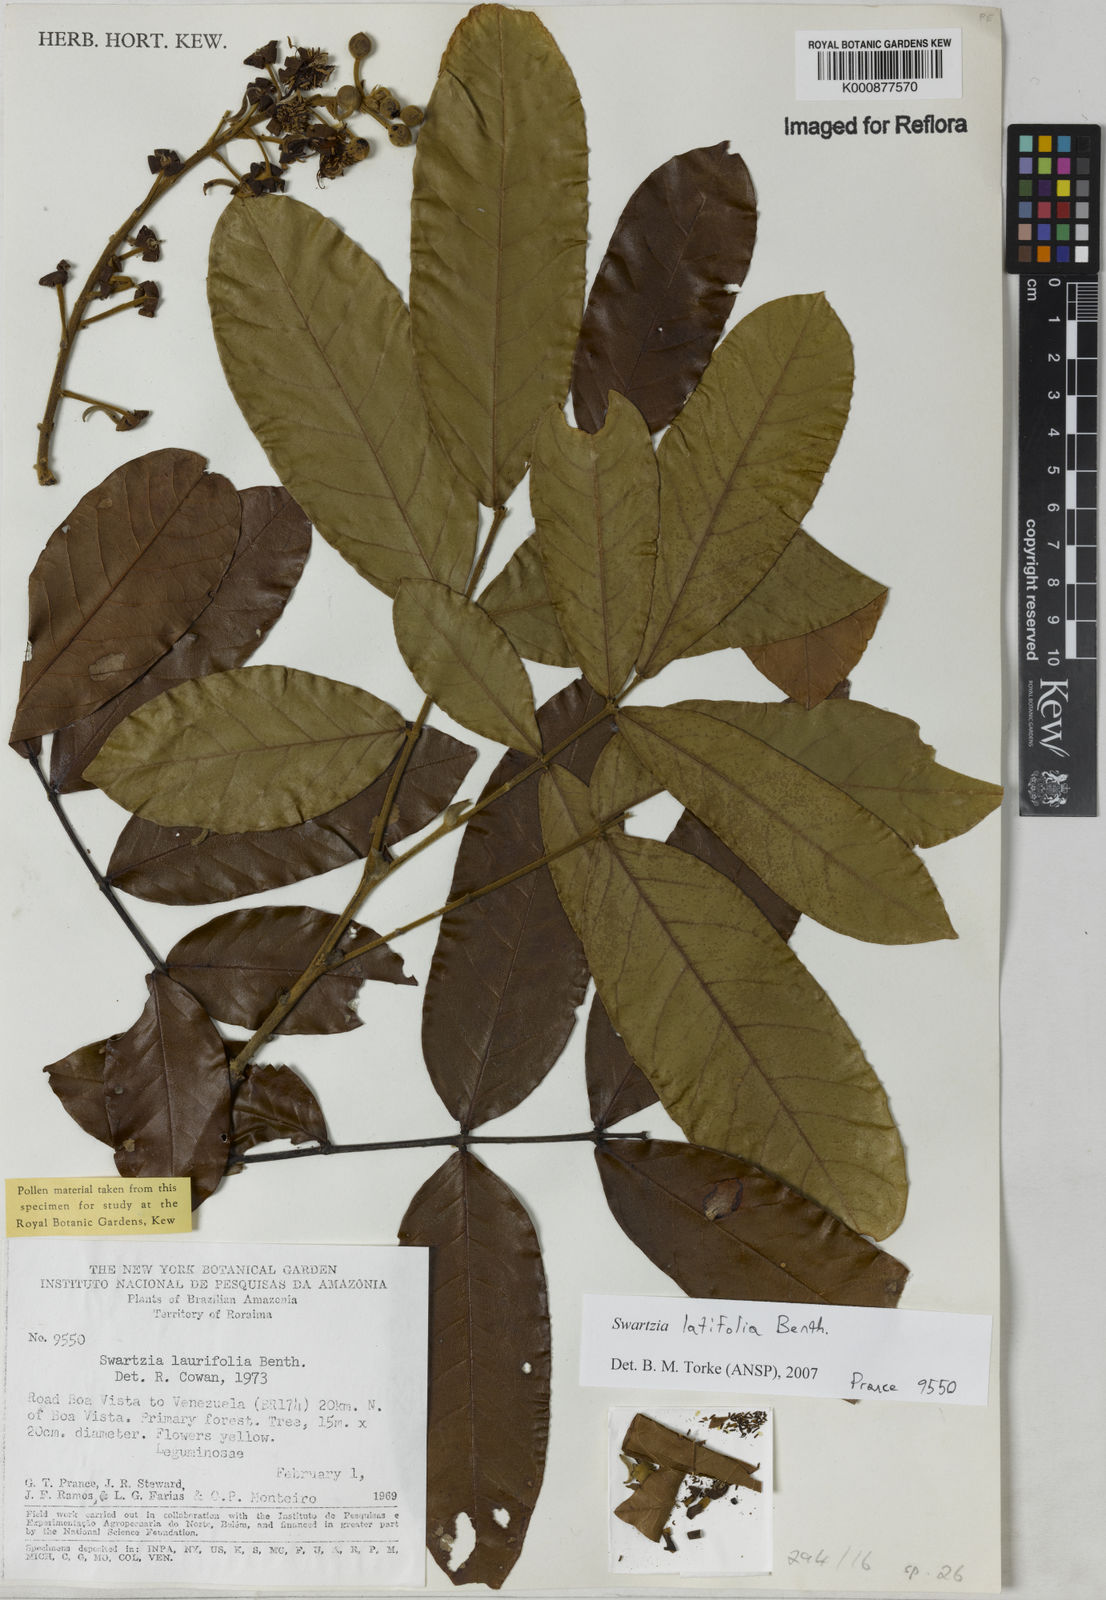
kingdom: Plantae
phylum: Tracheophyta
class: Magnoliopsida
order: Fabales
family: Fabaceae
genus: Swartzia
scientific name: Swartzia latifolia
